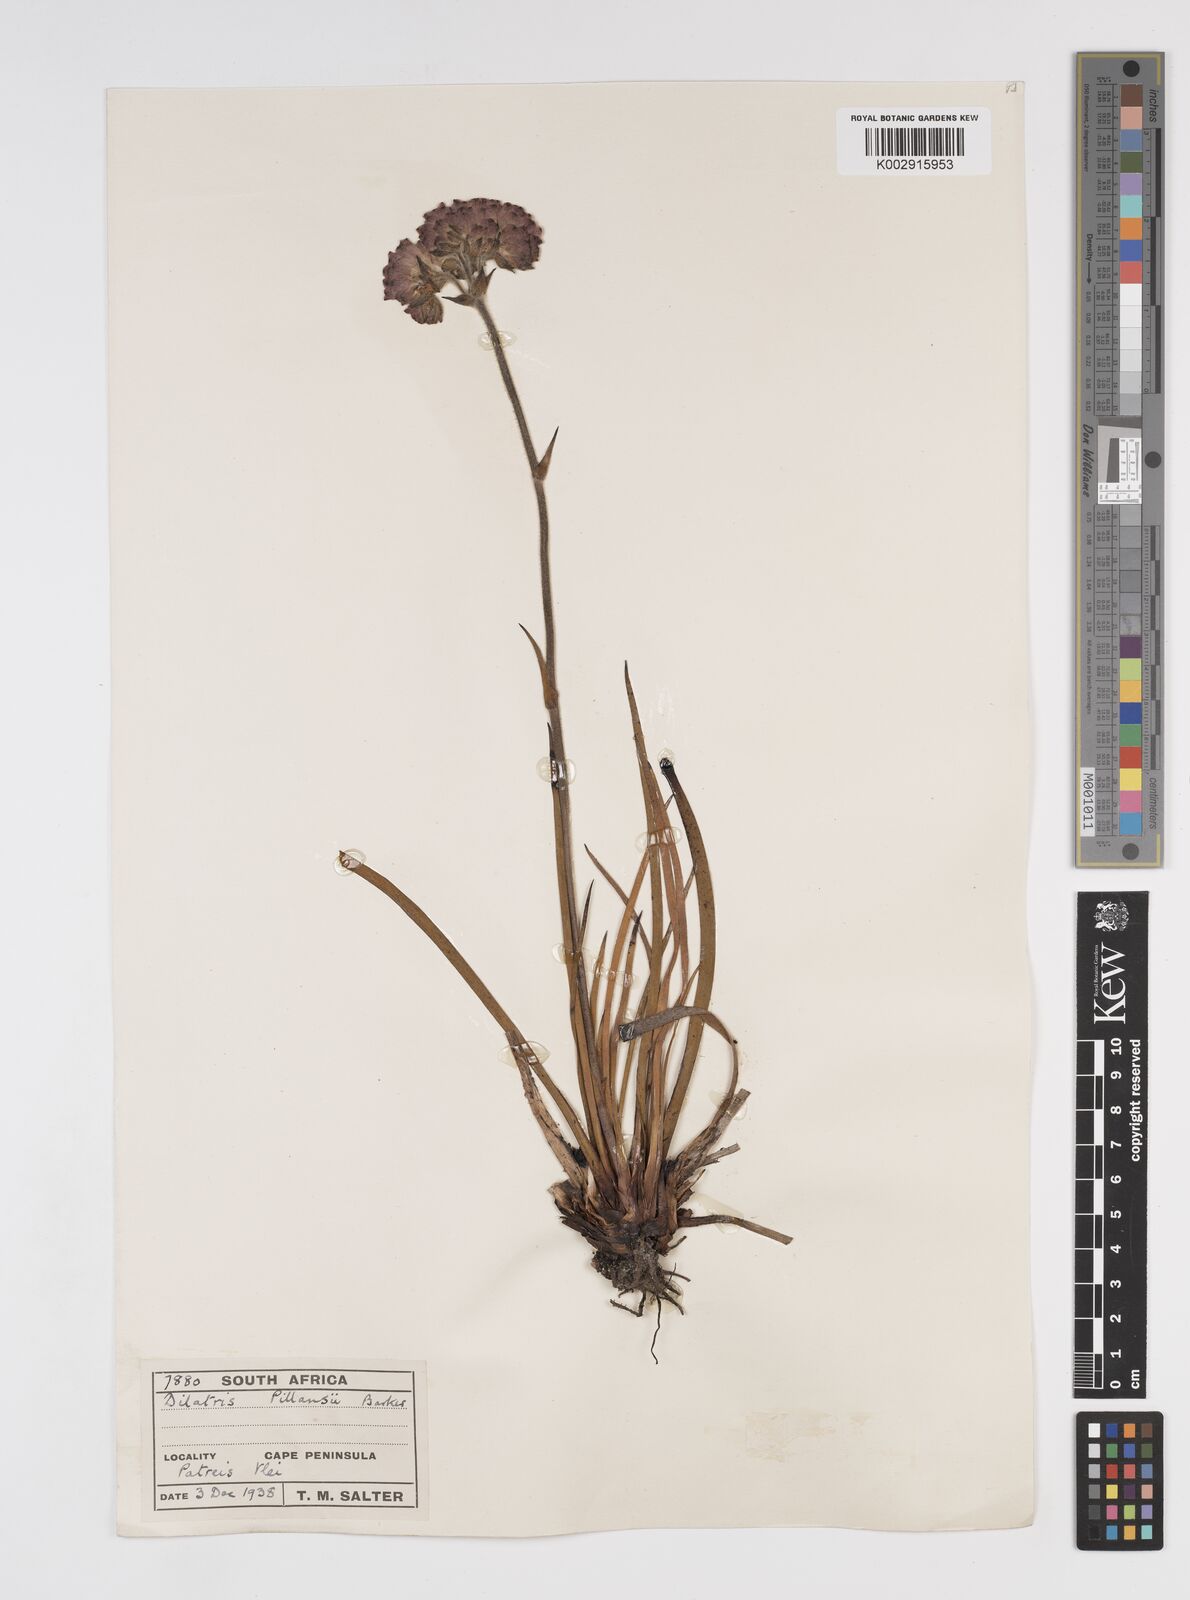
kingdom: Plantae
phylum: Tracheophyta
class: Liliopsida
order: Commelinales
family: Haemodoraceae
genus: Dilatris
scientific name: Dilatris pillansii
